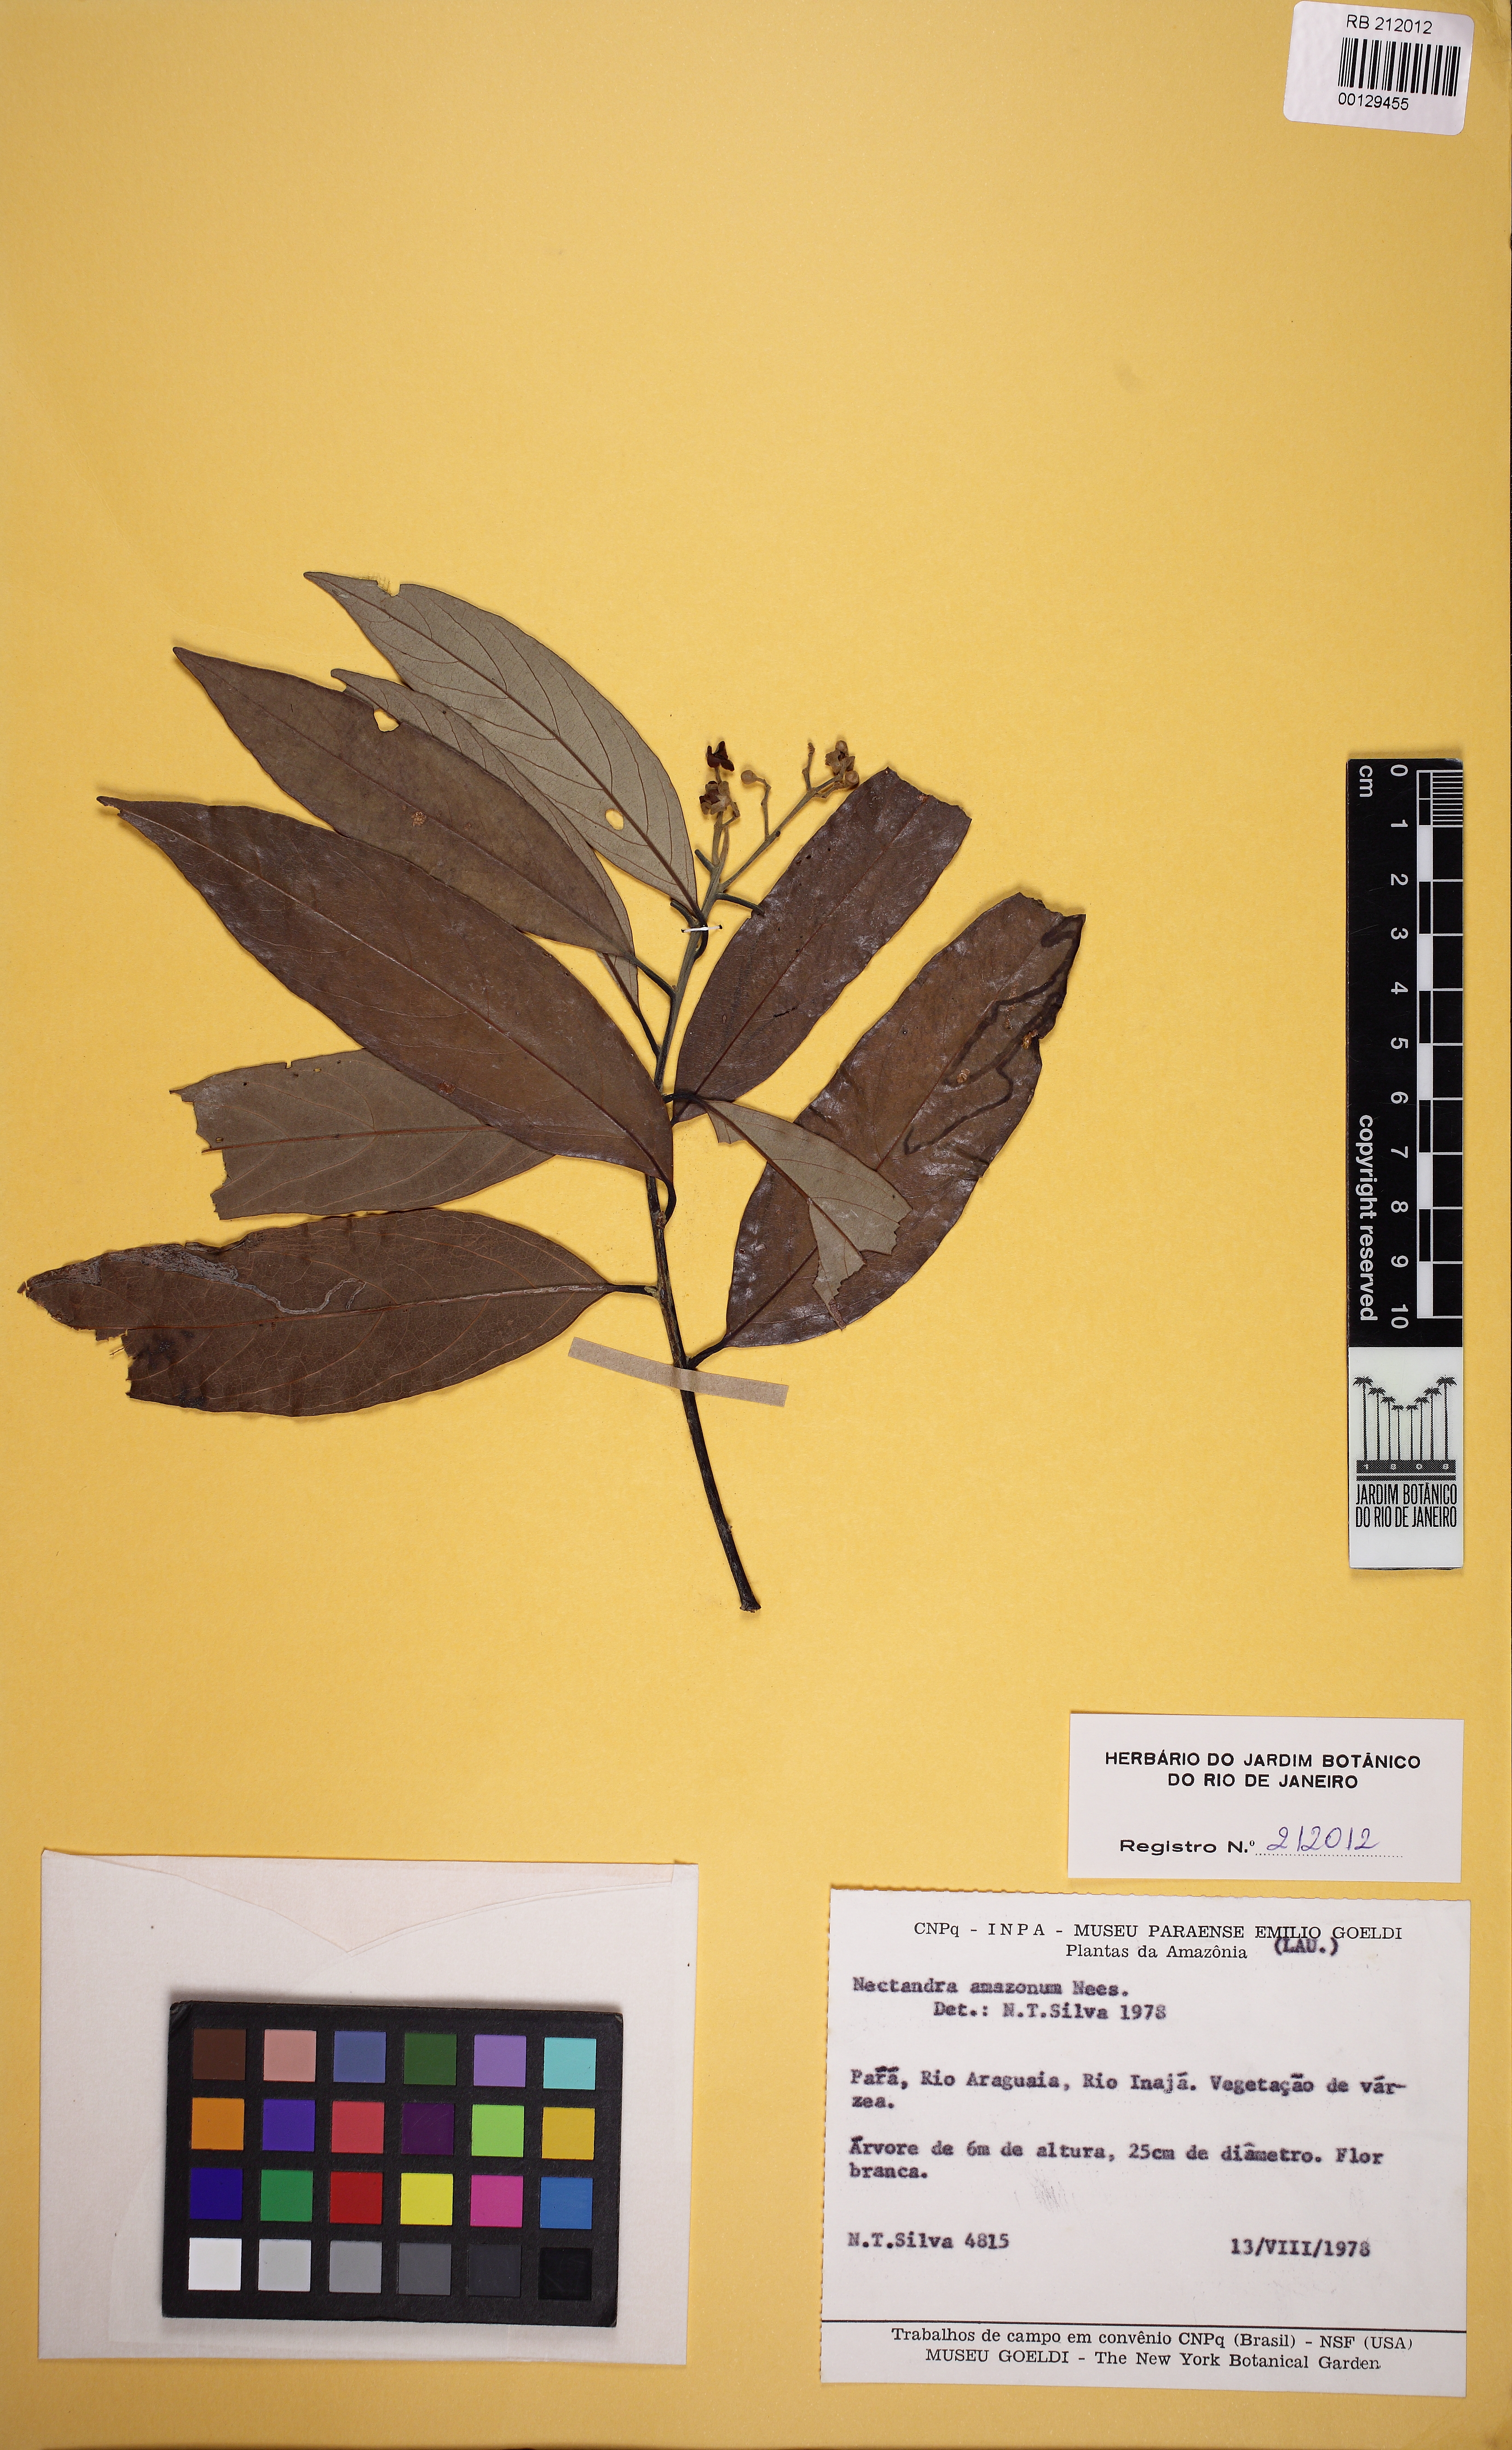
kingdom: Plantae
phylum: Tracheophyta
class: Magnoliopsida
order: Laurales
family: Lauraceae
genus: Nectandra
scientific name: Nectandra amazonum
